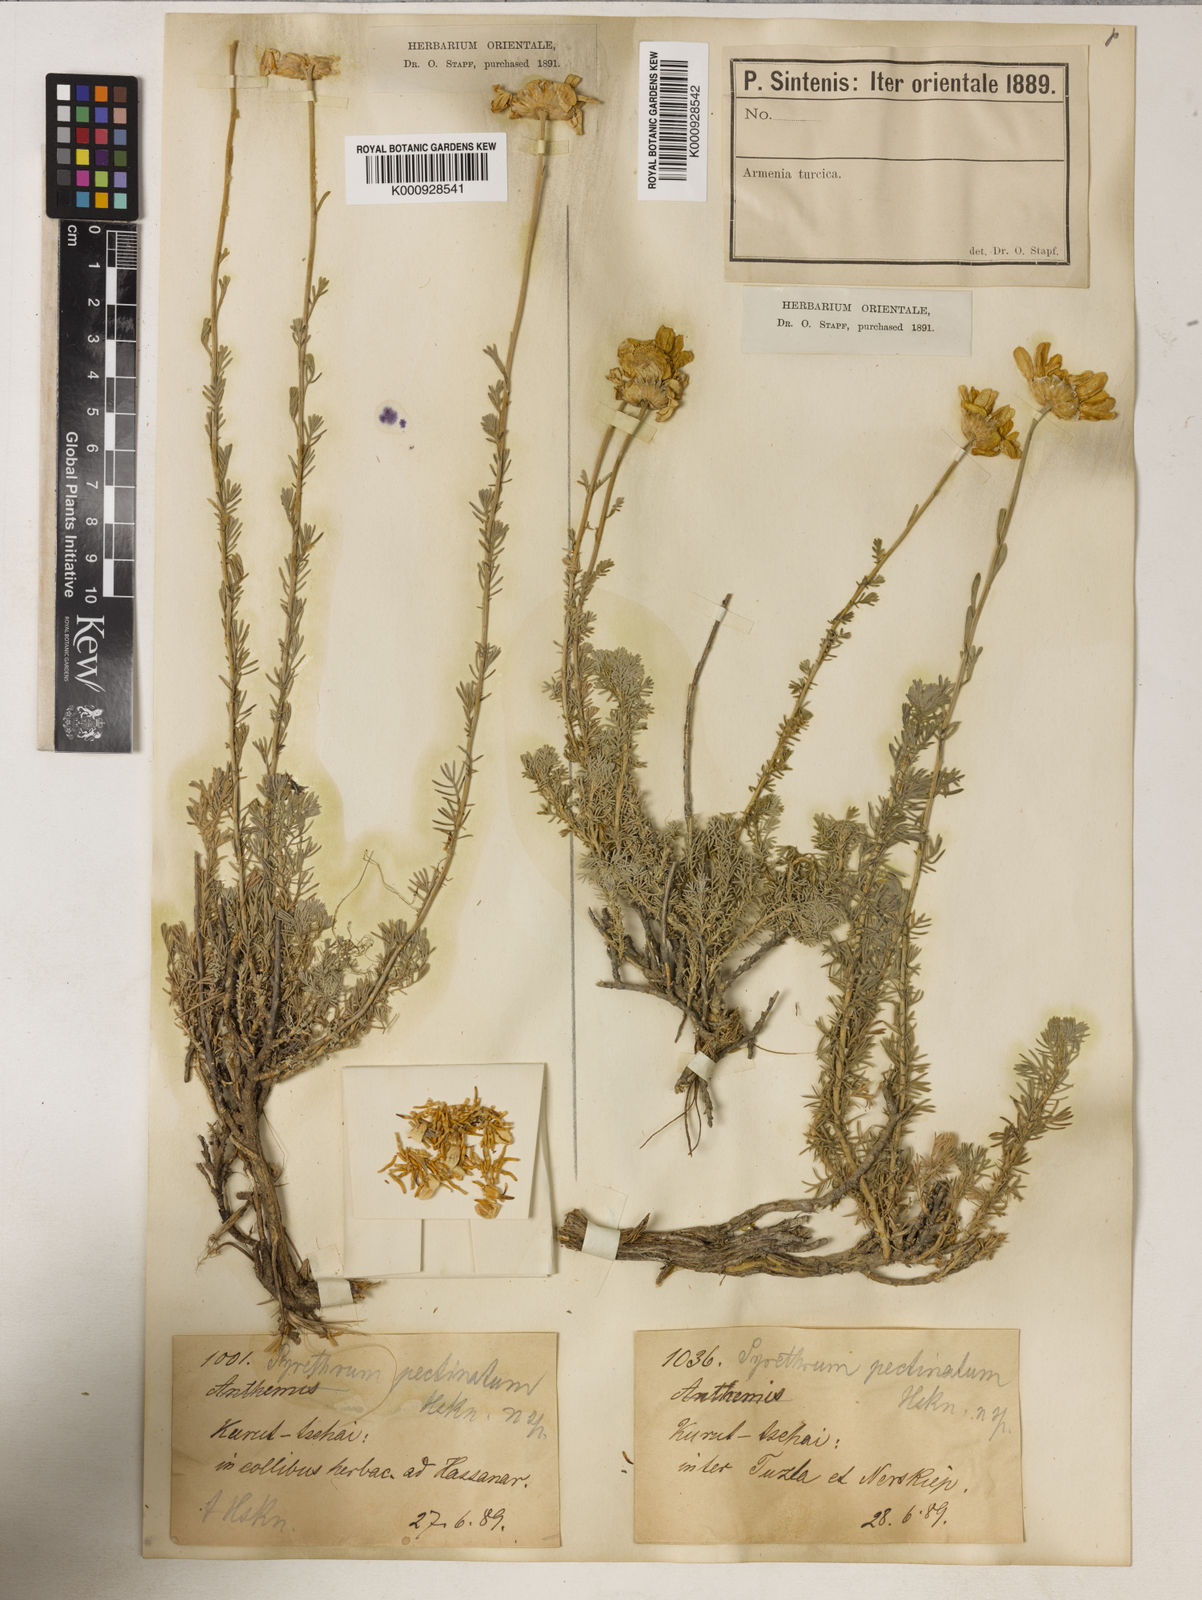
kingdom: Plantae
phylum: Tracheophyta
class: Magnoliopsida
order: Asterales
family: Asteraceae
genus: Tanacetum
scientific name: Tanacetum heterotomum
